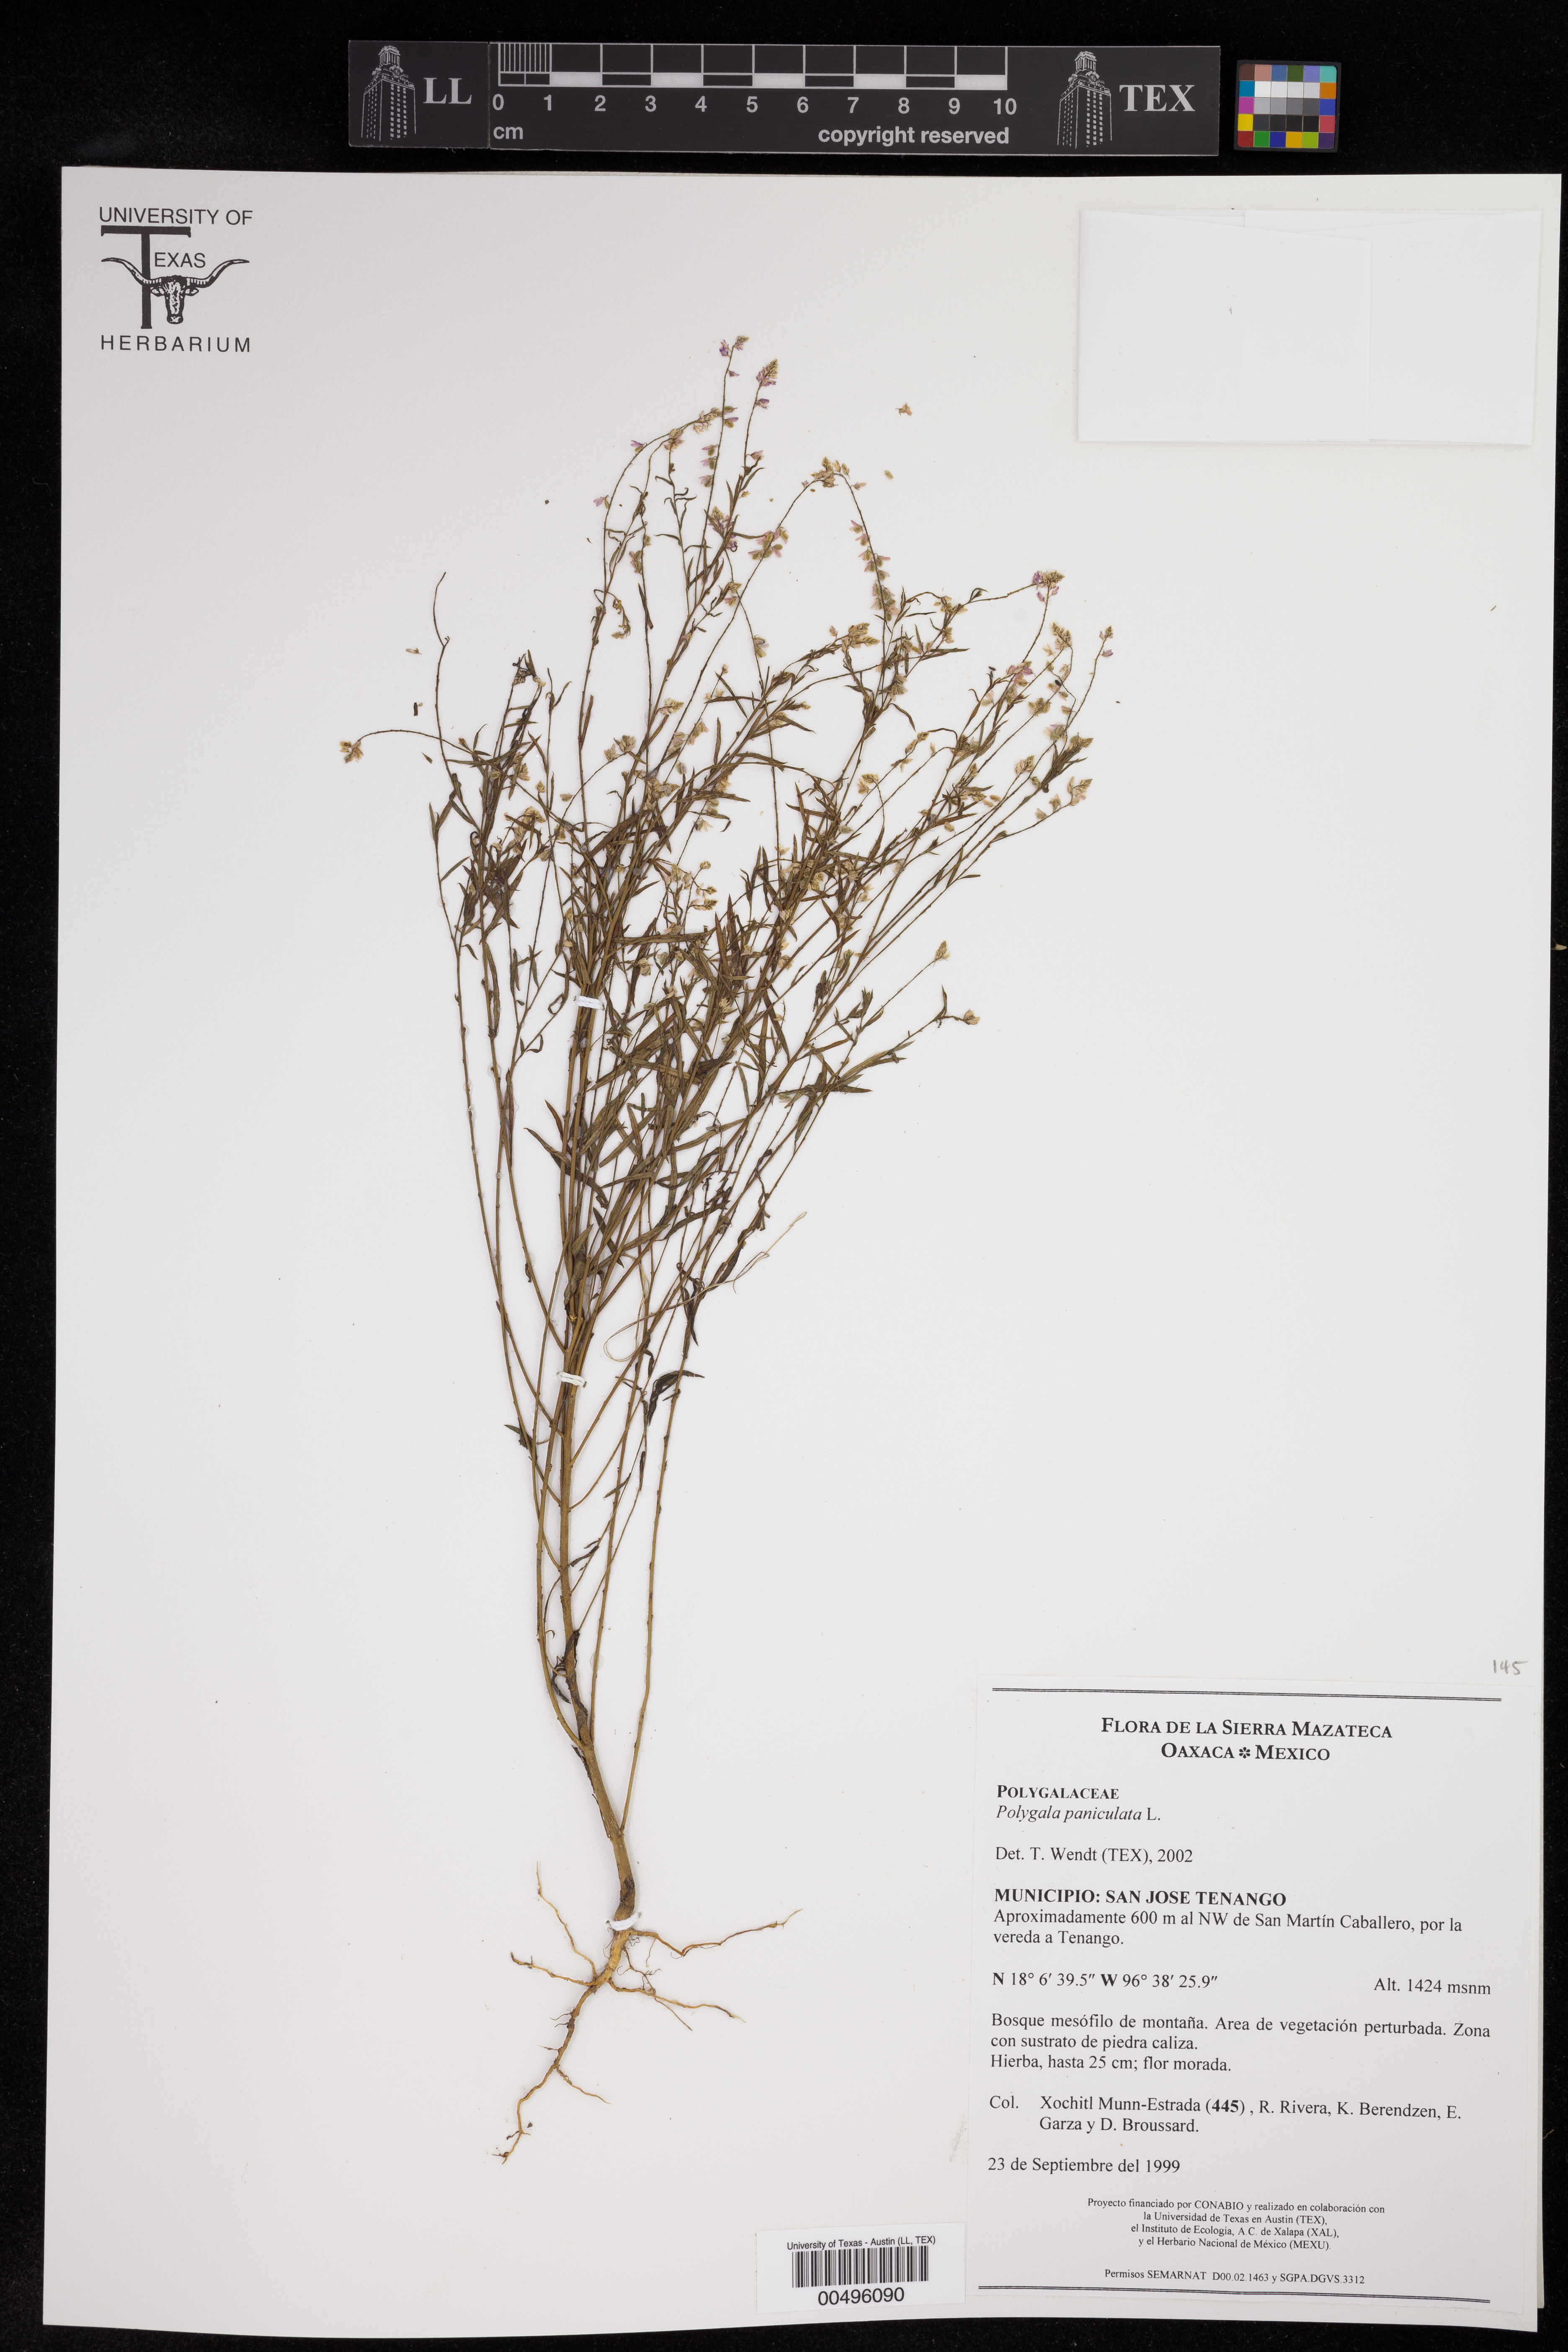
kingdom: Plantae
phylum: Tracheophyta
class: Magnoliopsida
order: Fabales
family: Polygalaceae
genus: Polygala
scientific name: Polygala paniculata
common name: Orosne
